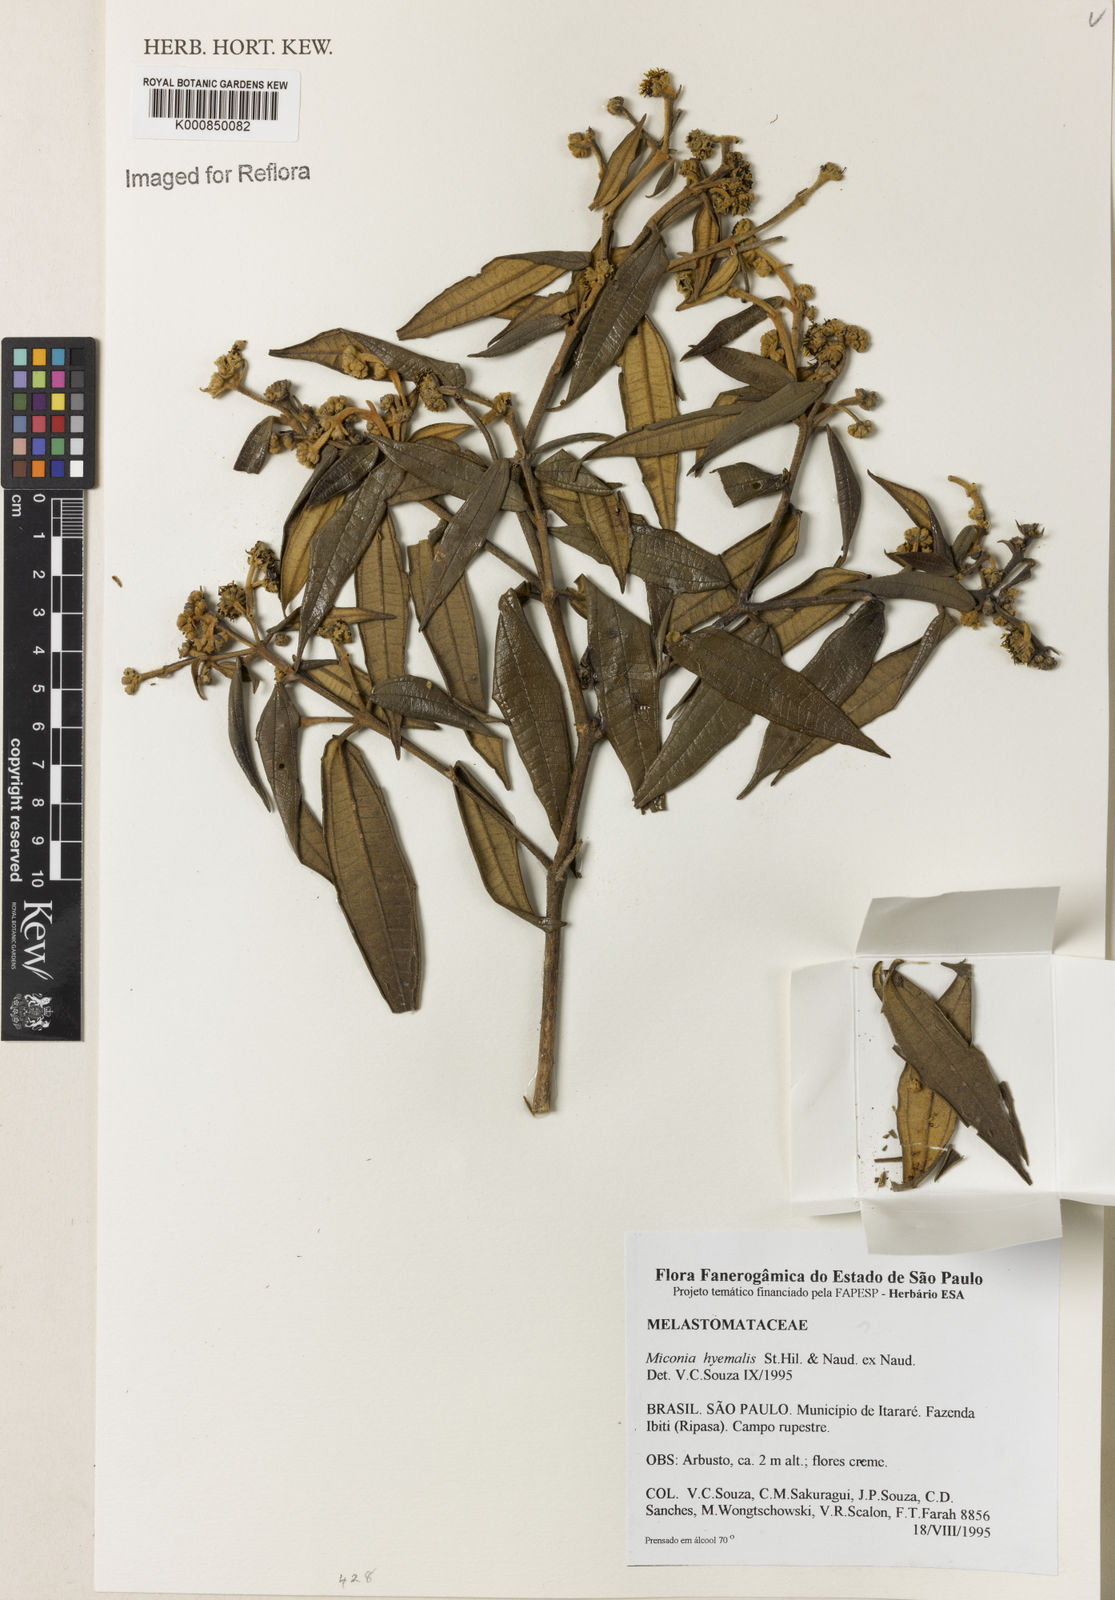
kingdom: Plantae
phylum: Tracheophyta
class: Magnoliopsida
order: Myrtales
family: Melastomataceae
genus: Miconia
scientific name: Miconia hyemalis
